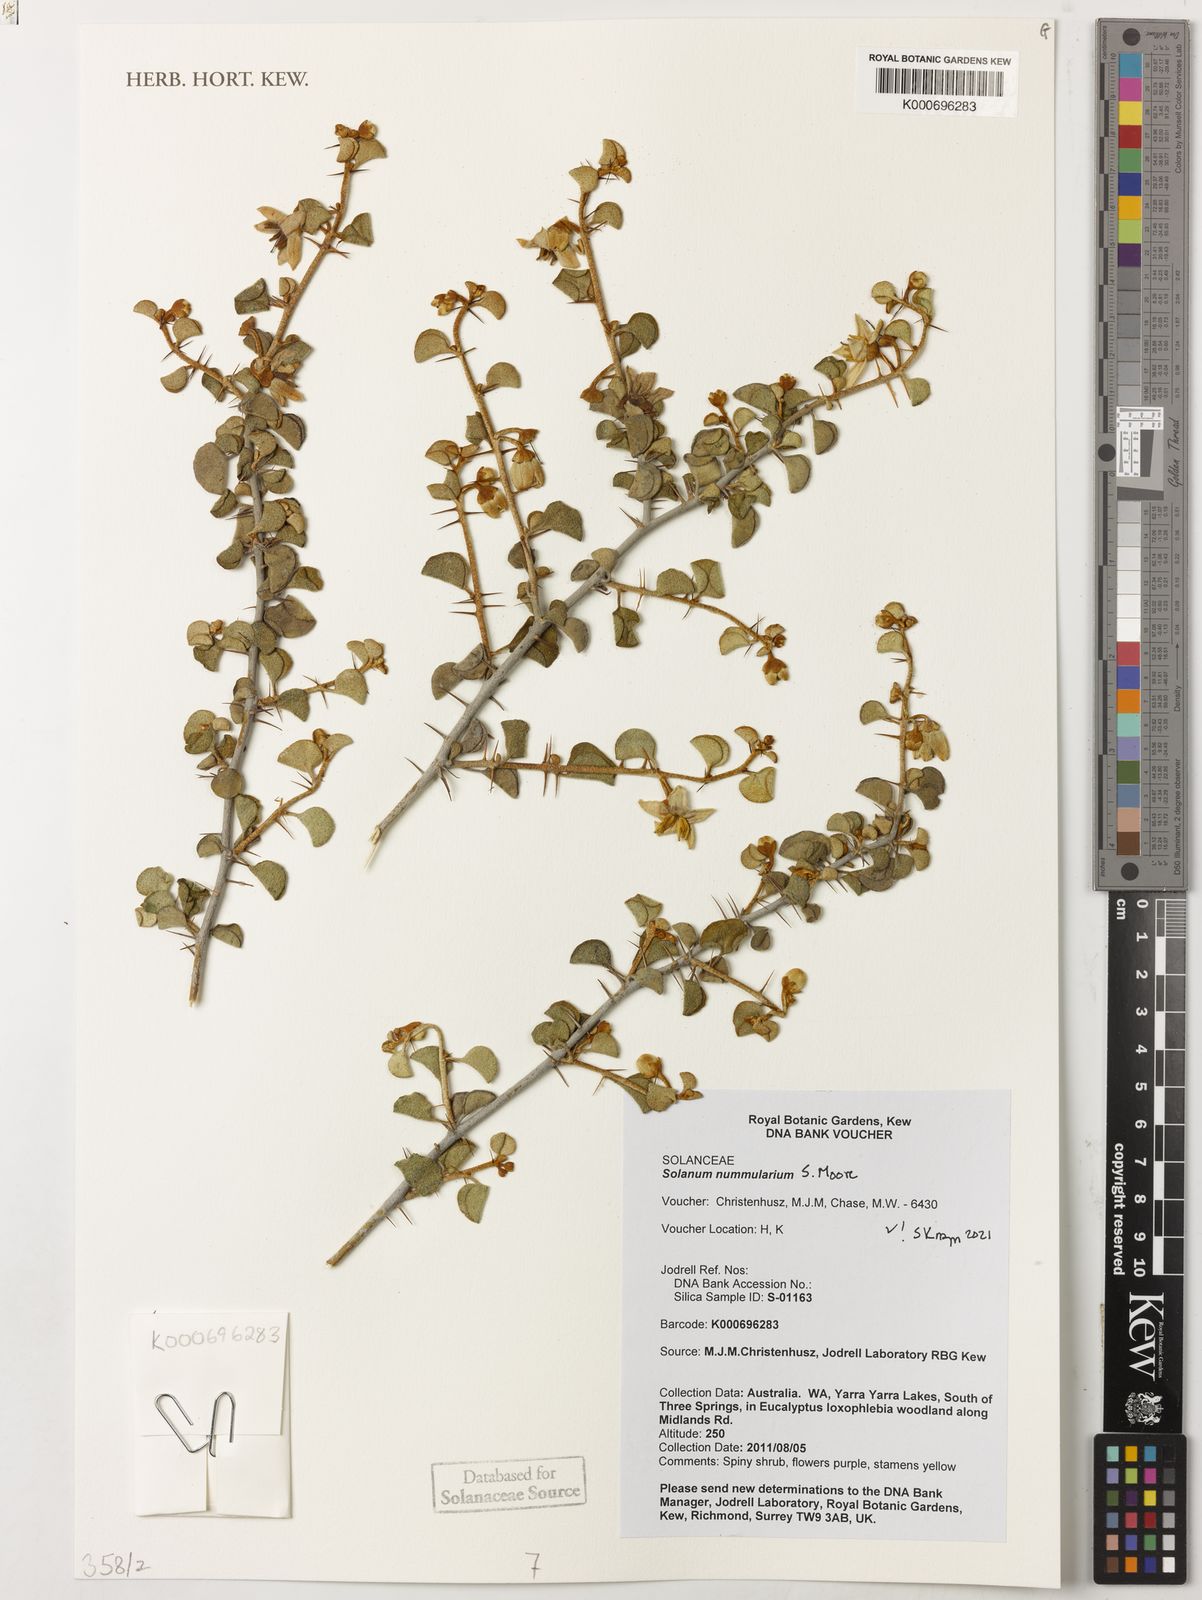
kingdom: Plantae
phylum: Tracheophyta
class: Magnoliopsida
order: Solanales
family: Solanaceae
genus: Solanum
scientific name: Solanum nummularium
